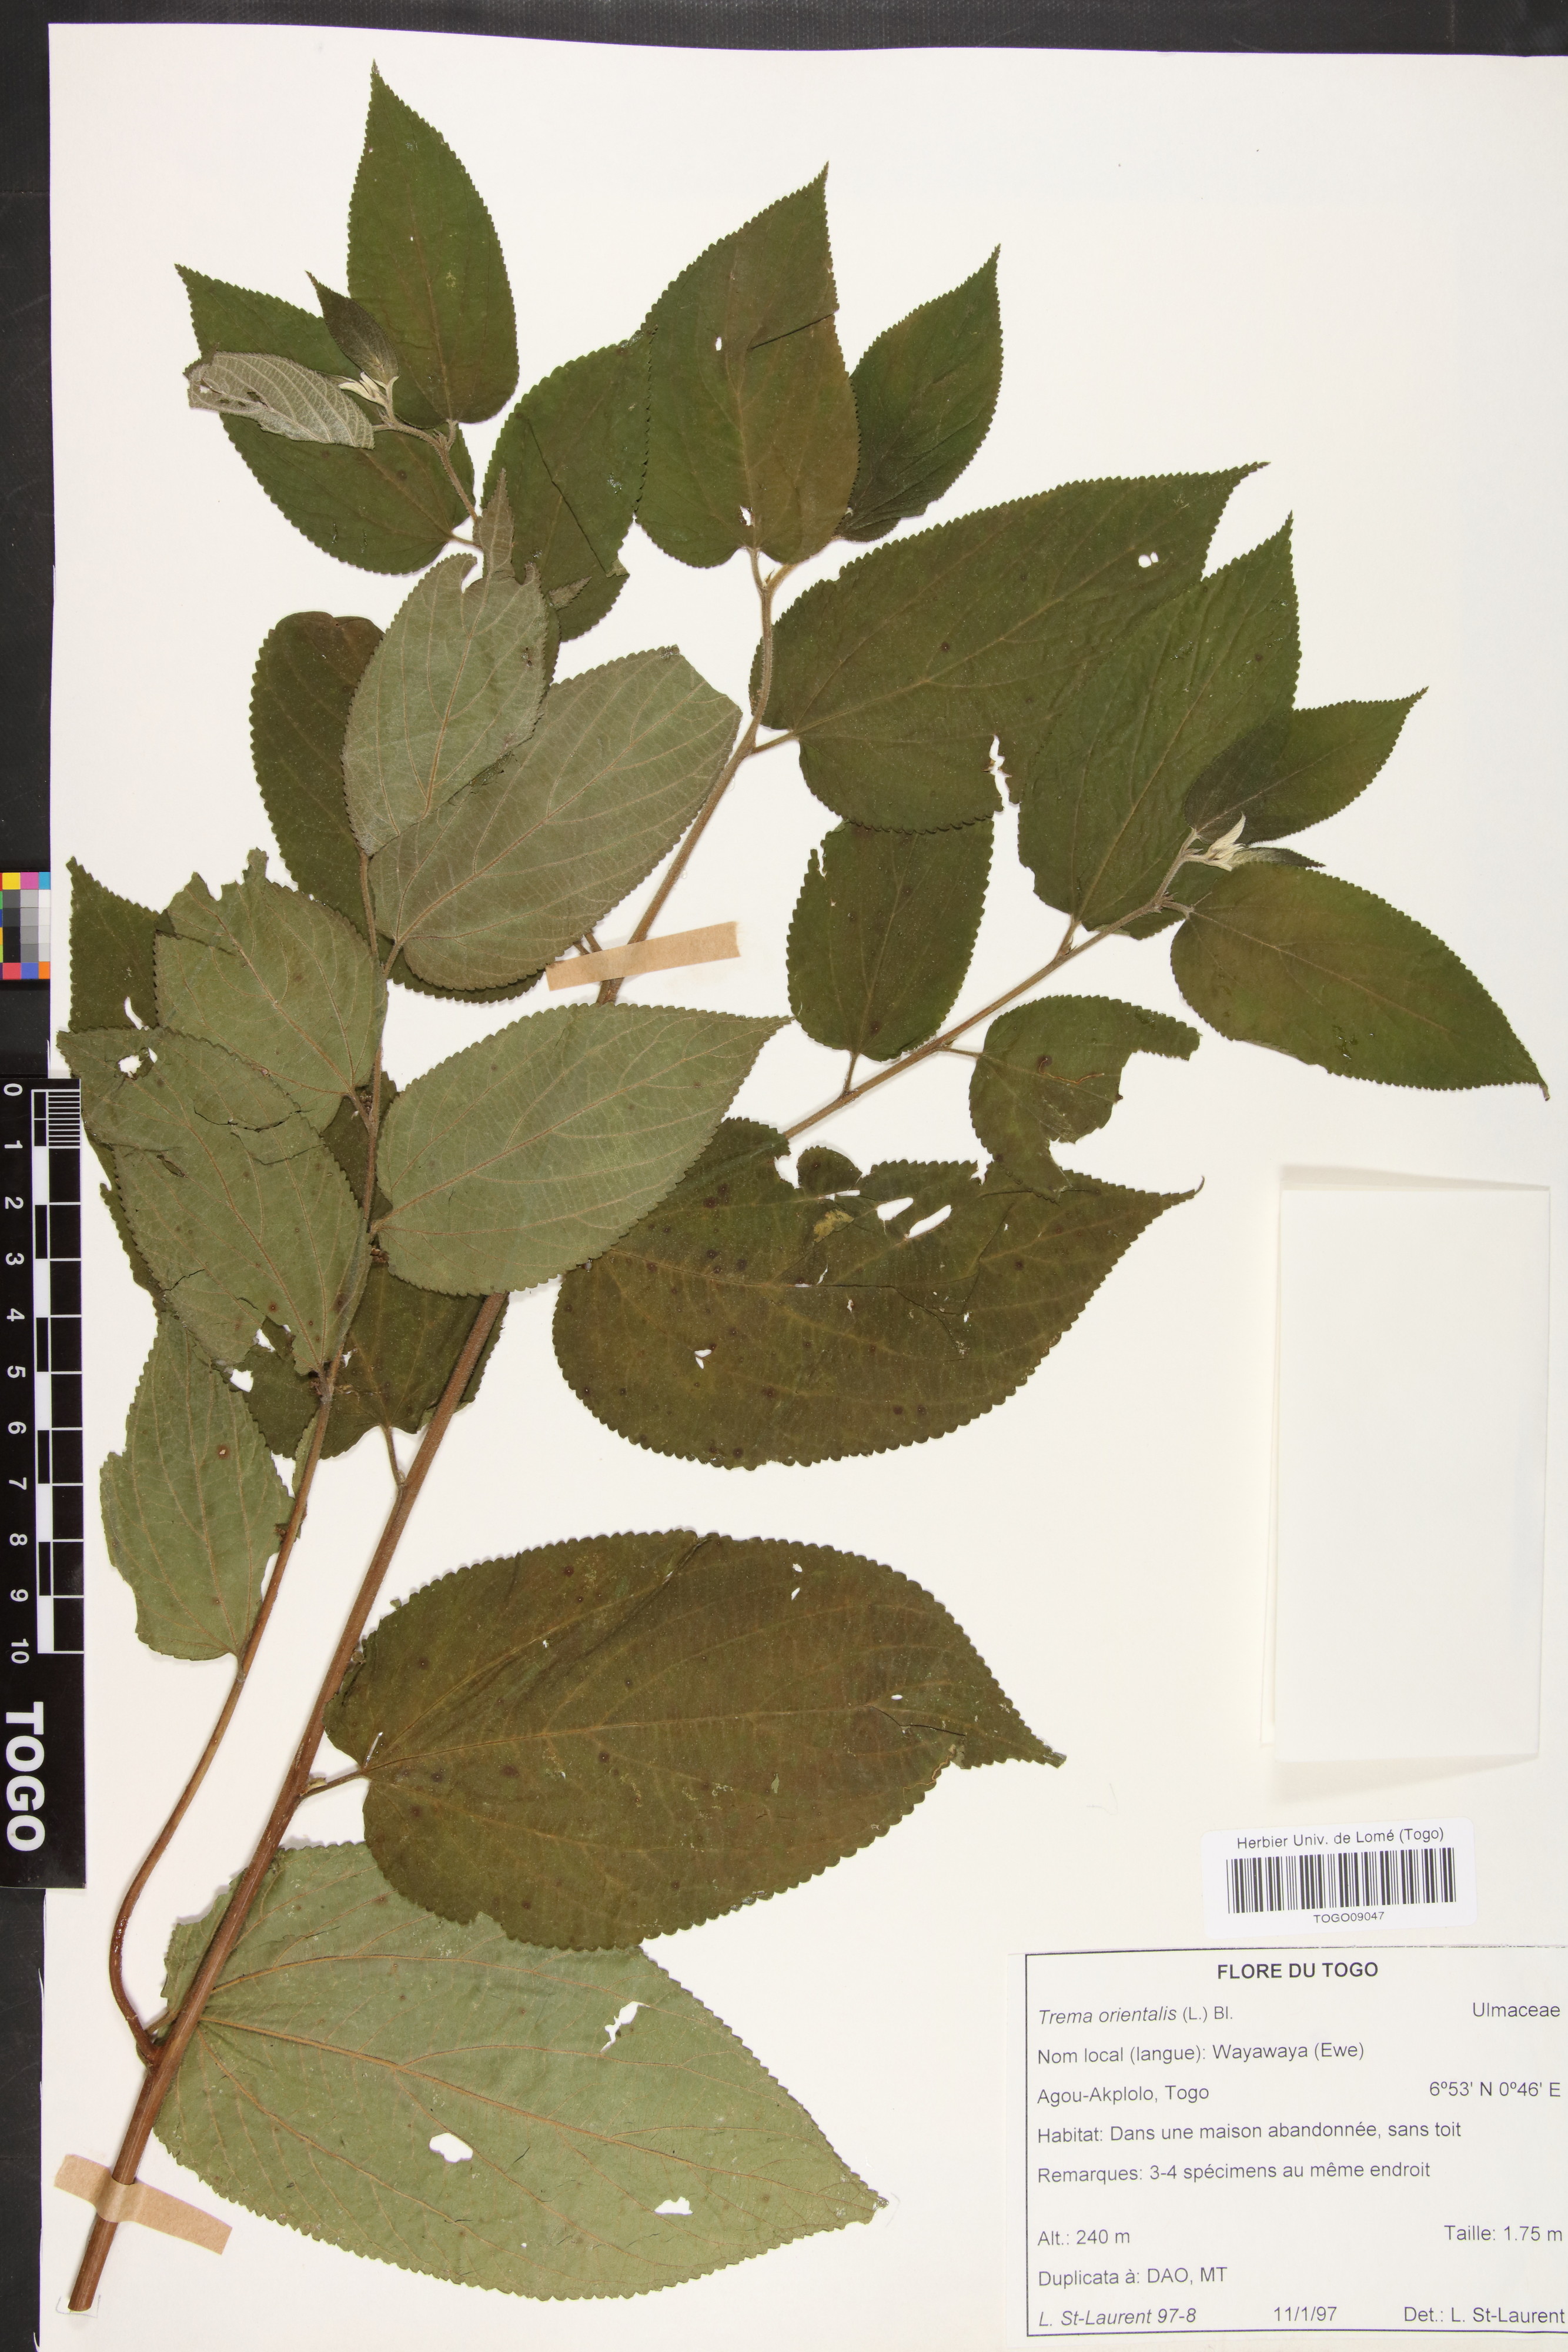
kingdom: Plantae
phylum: Tracheophyta
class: Magnoliopsida
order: Rosales
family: Cannabaceae
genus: Trema
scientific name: Trema orientale
